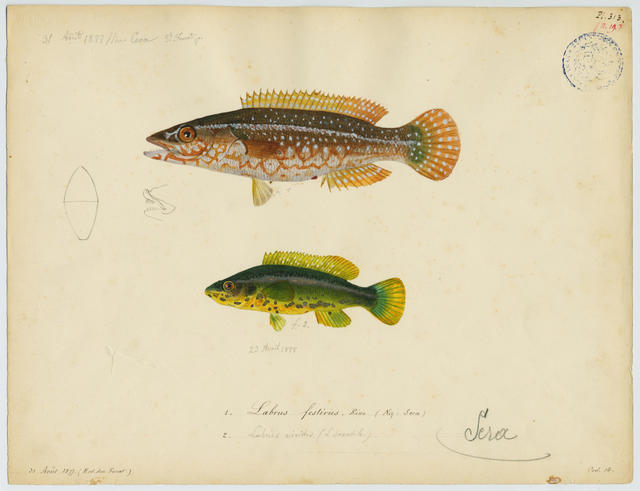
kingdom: Animalia
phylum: Chordata
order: Perciformes
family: Labridae
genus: Labrus
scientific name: Labrus viridis
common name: Green wrasse
